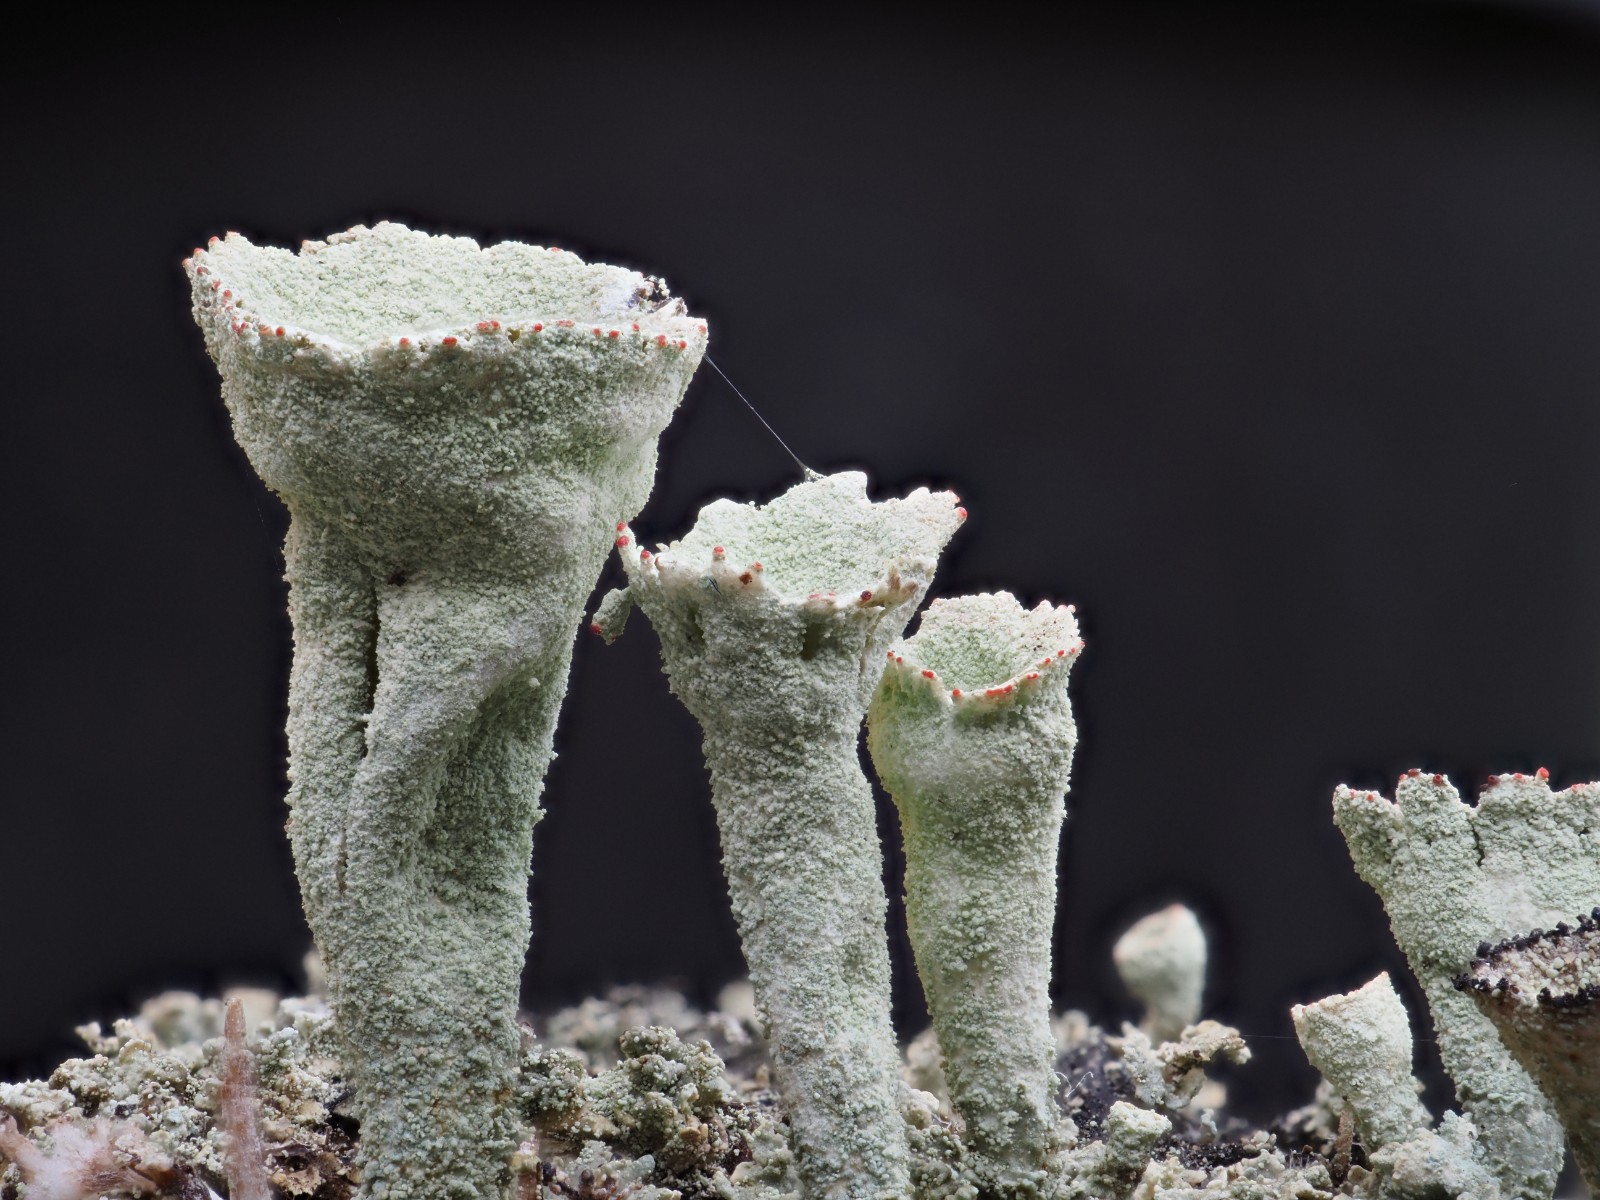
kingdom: Fungi
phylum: Ascomycota
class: Lecanoromycetes
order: Lecanorales
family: Cladoniaceae
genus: Cladonia
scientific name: Cladonia pleurota
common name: skarlagenrød bægerlav
